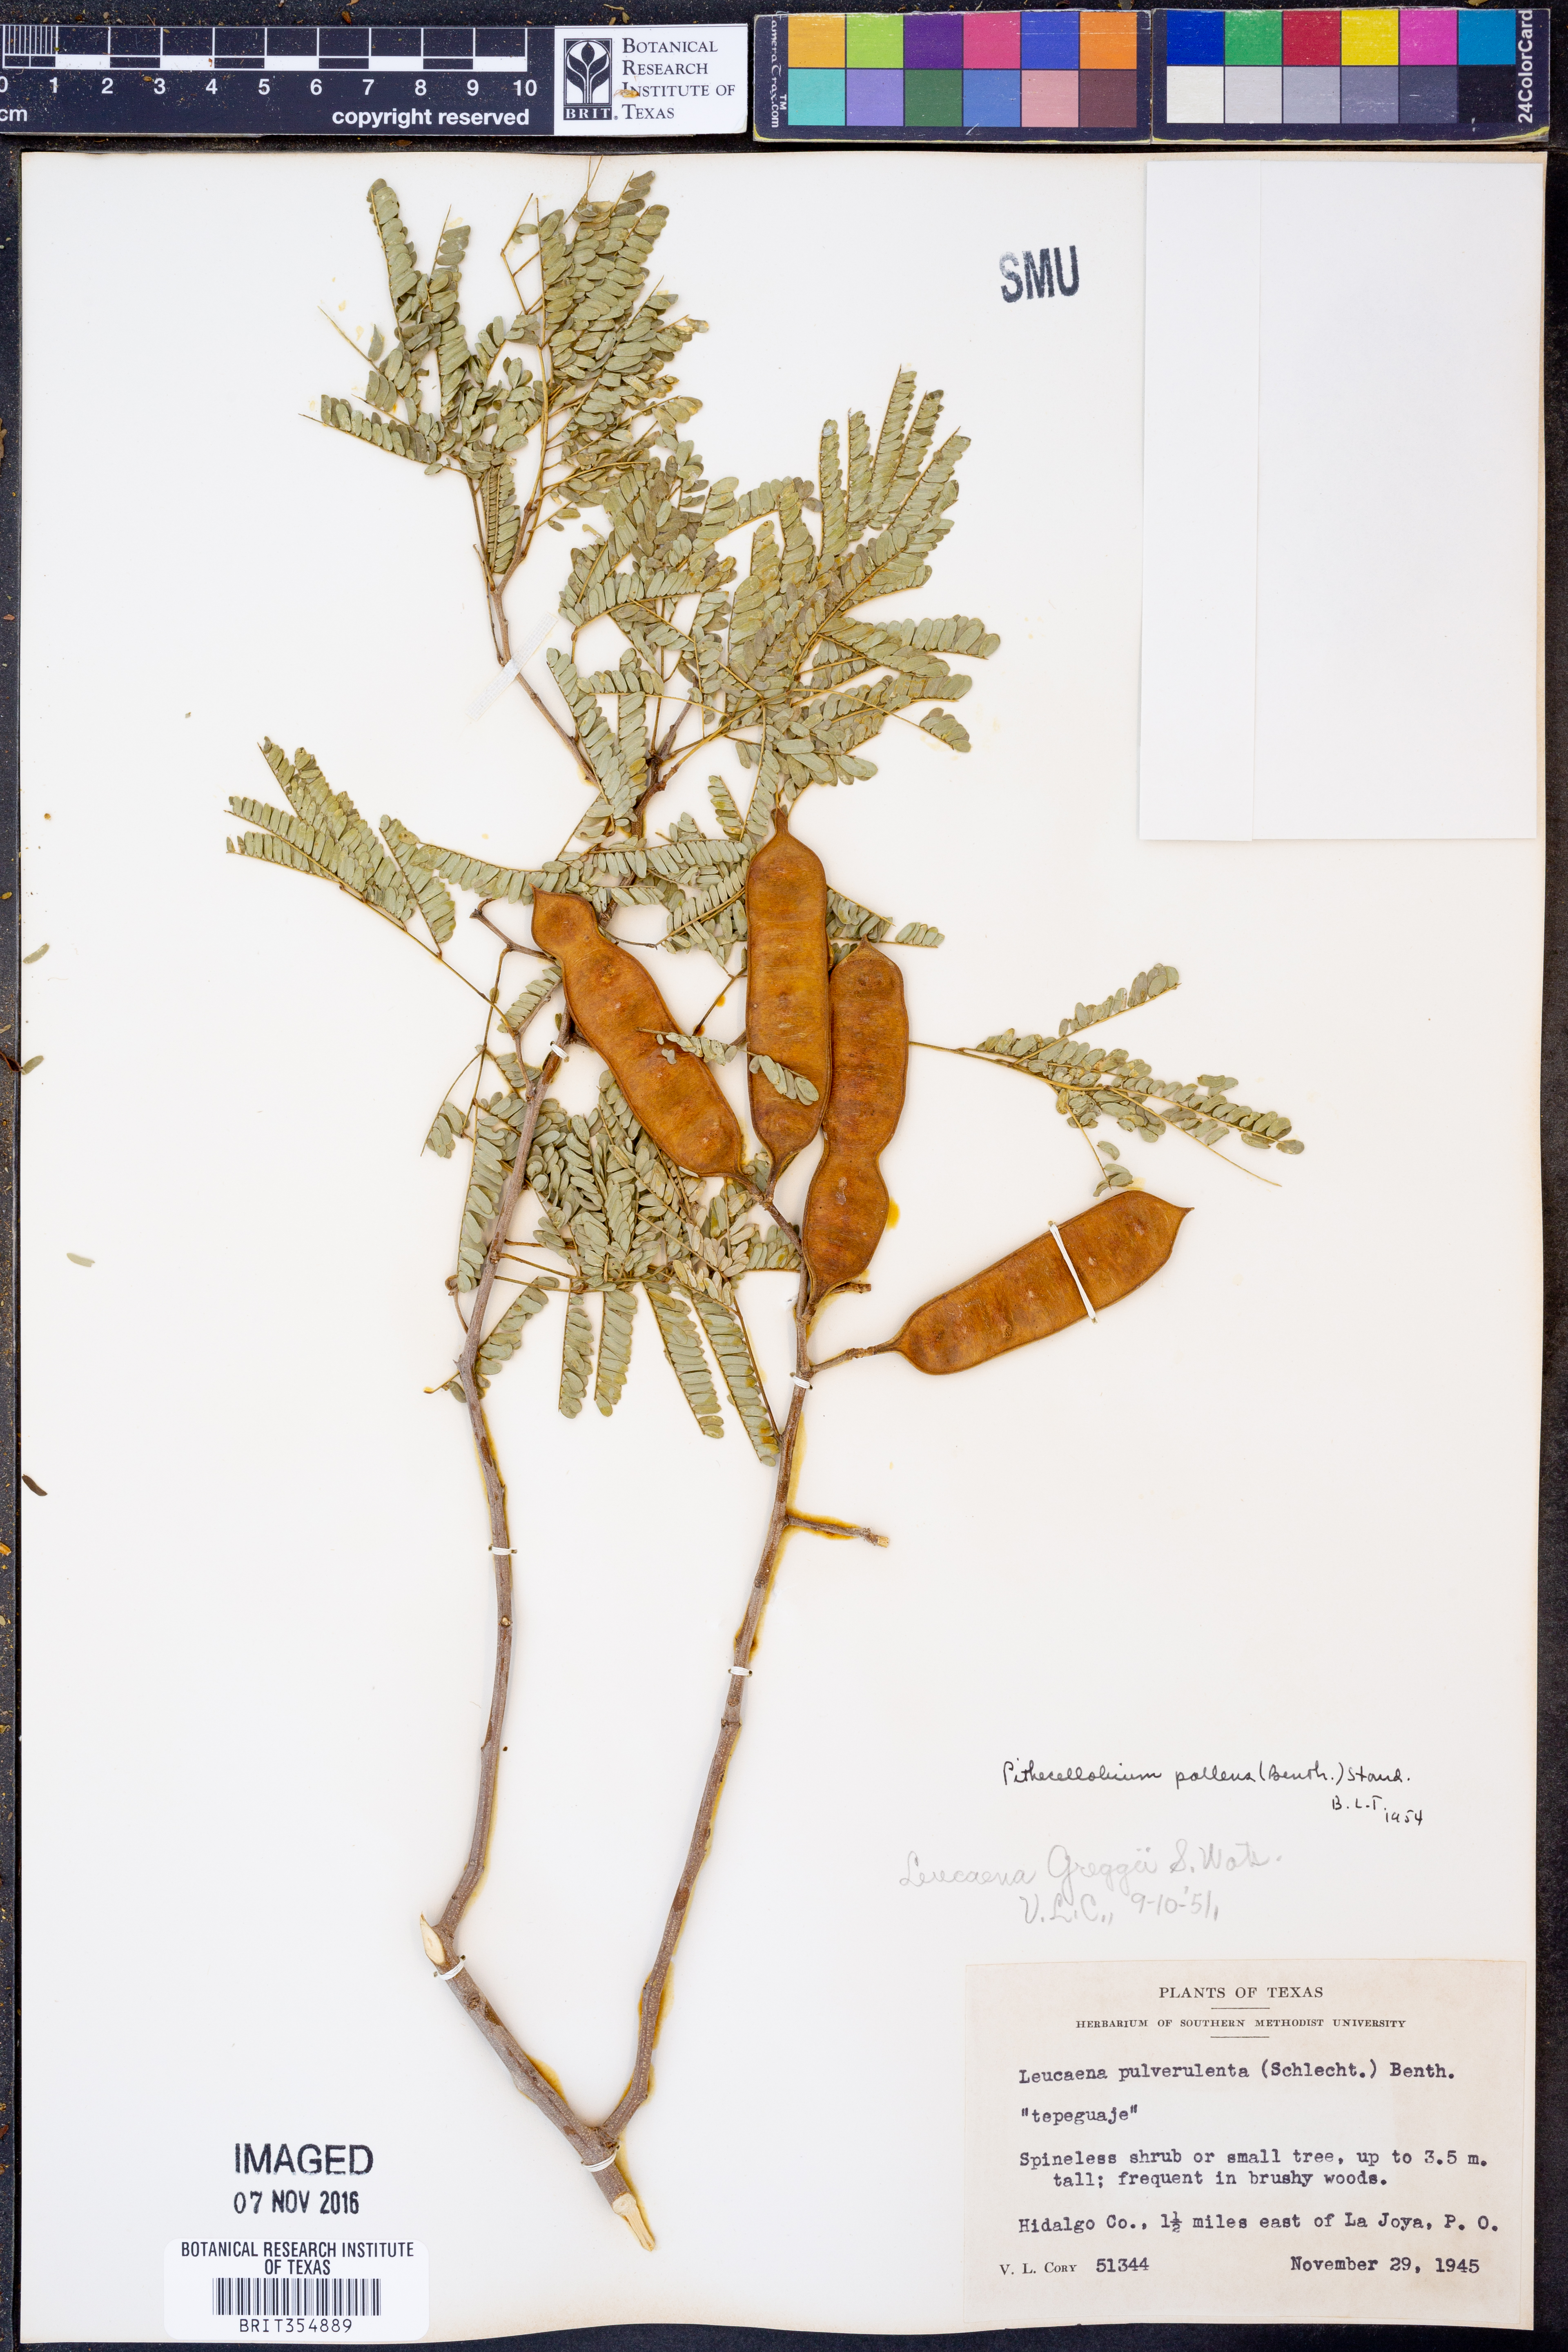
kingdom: Plantae
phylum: Tracheophyta
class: Magnoliopsida
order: Fabales
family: Fabaceae
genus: Havardia
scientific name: Havardia pallens
